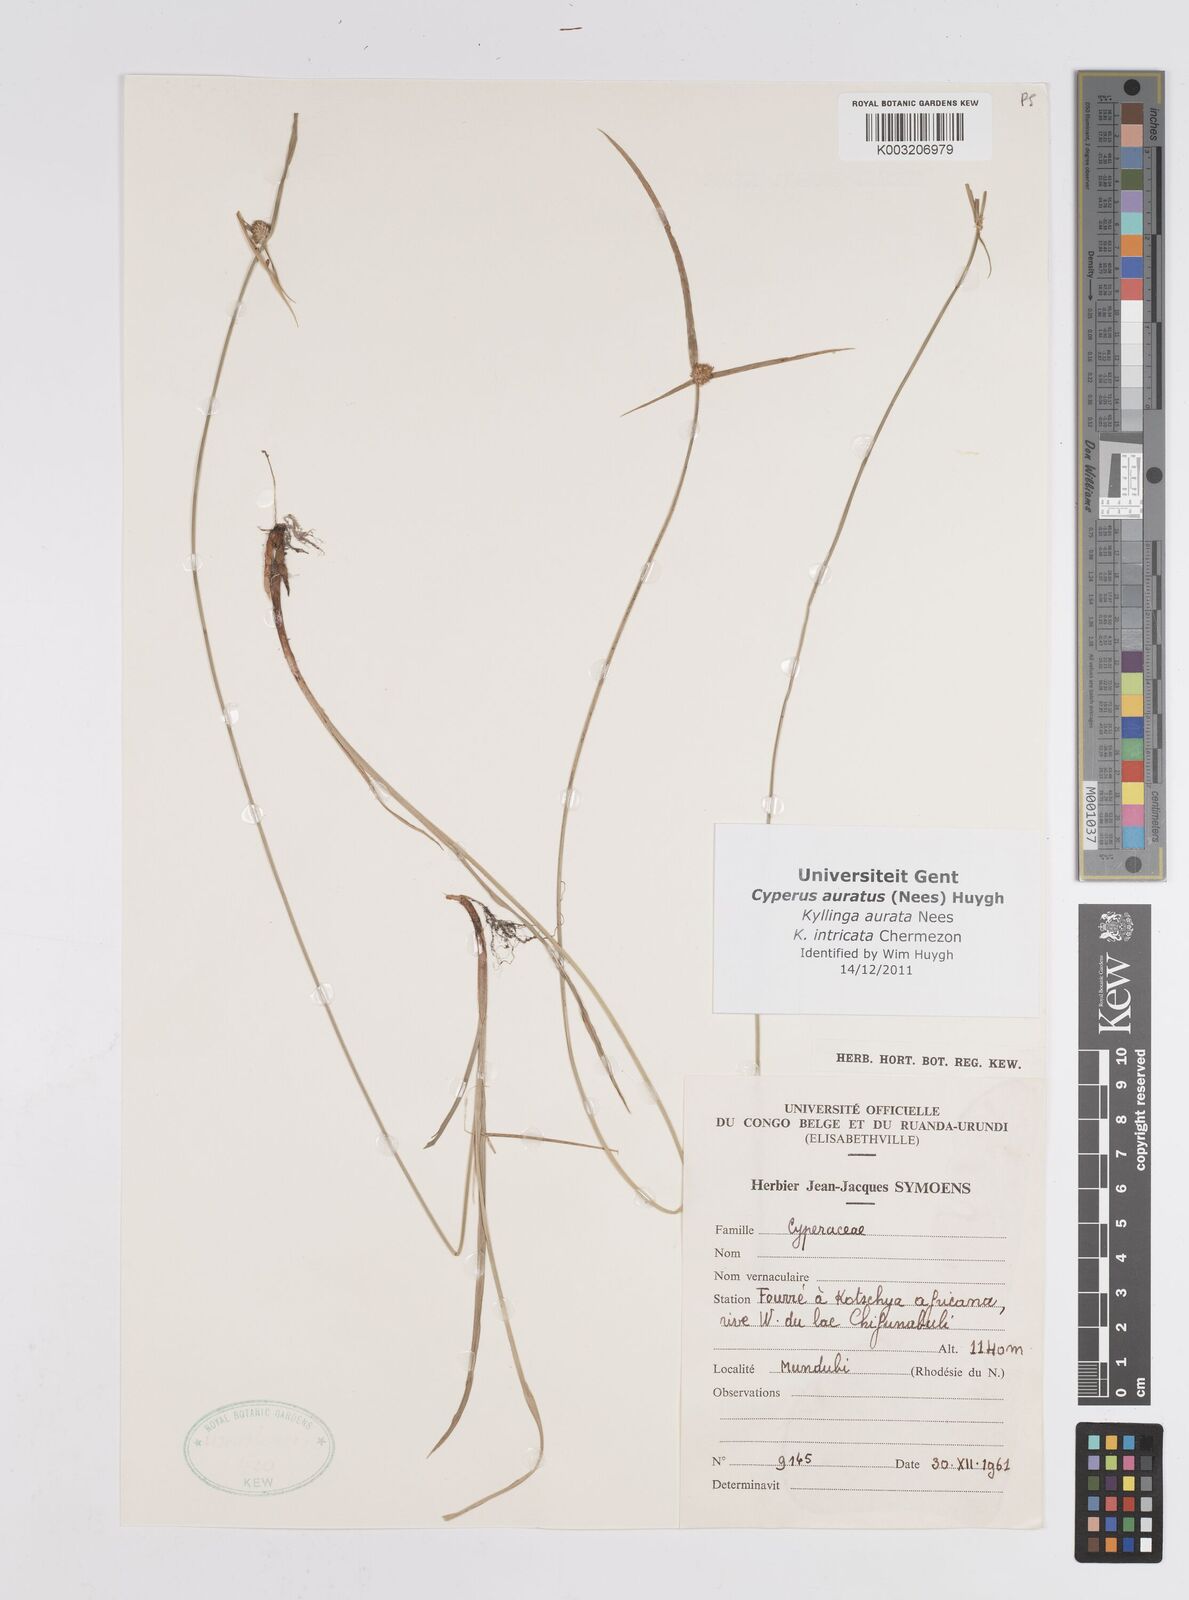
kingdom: Plantae
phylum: Tracheophyta
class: Liliopsida
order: Poales
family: Cyperaceae
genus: Cyperus
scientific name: Cyperus auratus
